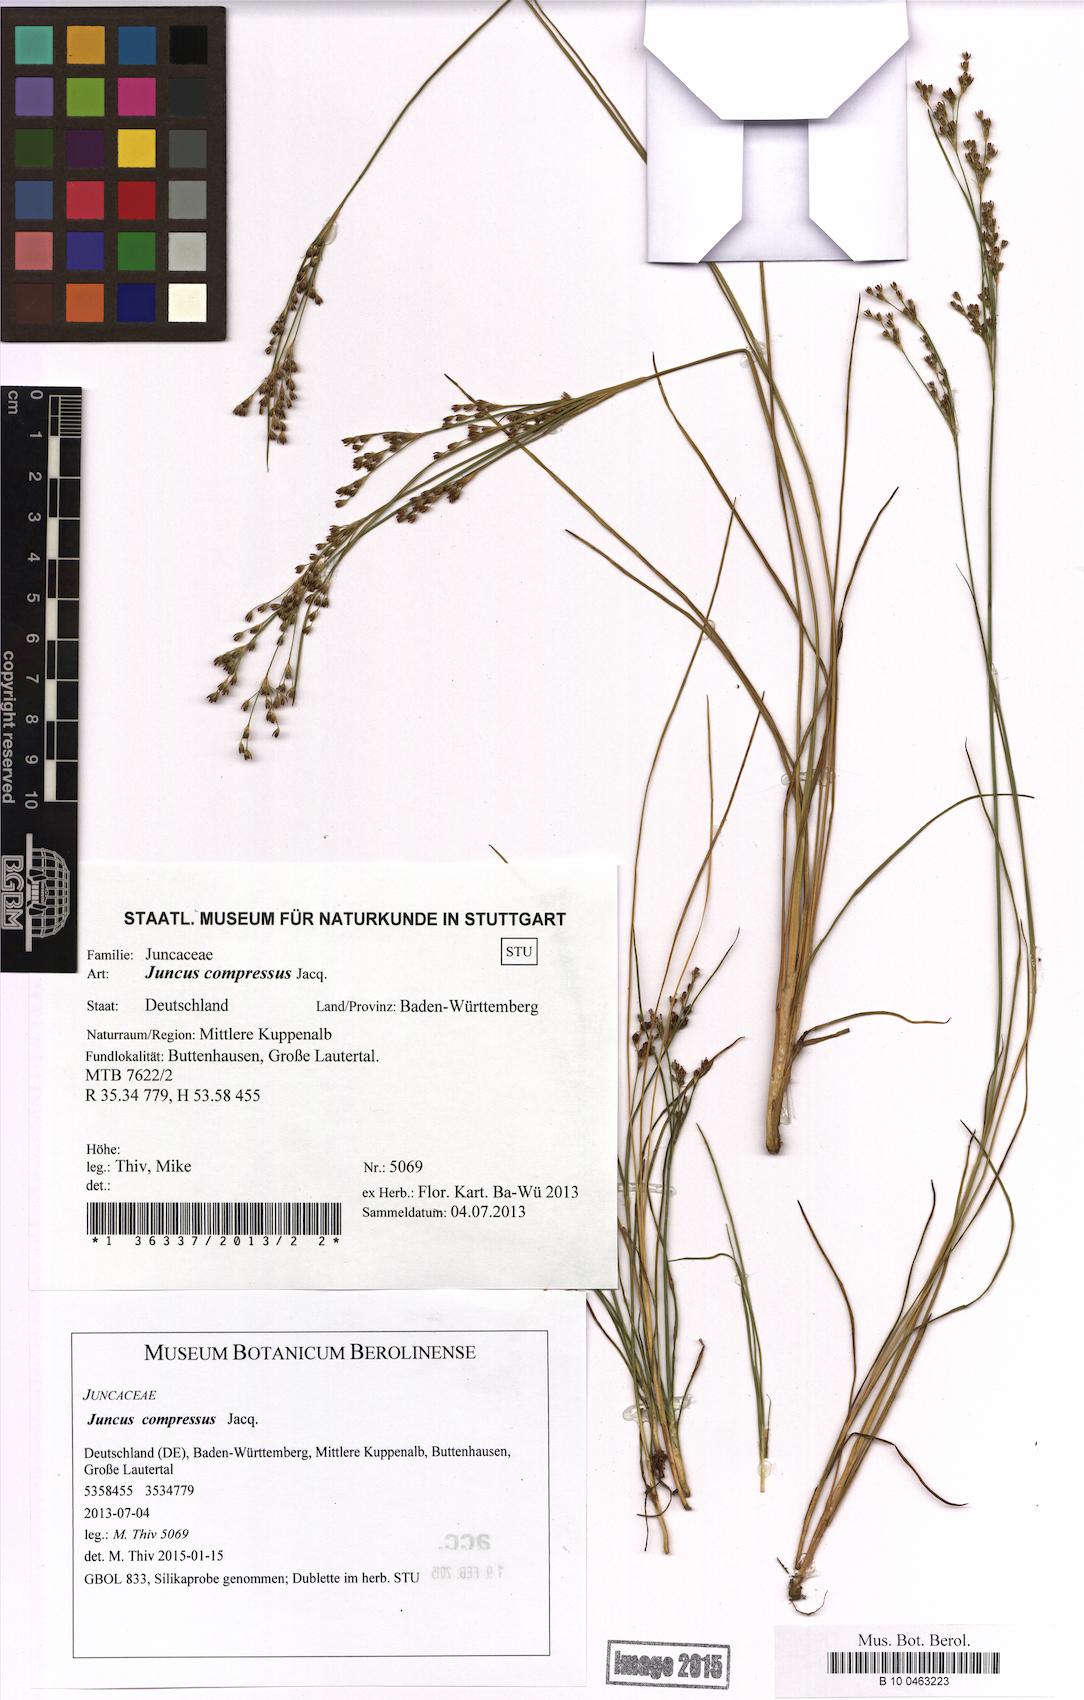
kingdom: Plantae
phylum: Tracheophyta
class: Liliopsida
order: Poales
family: Juncaceae
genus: Juncus
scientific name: Juncus compressus
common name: Round-fruited rush
